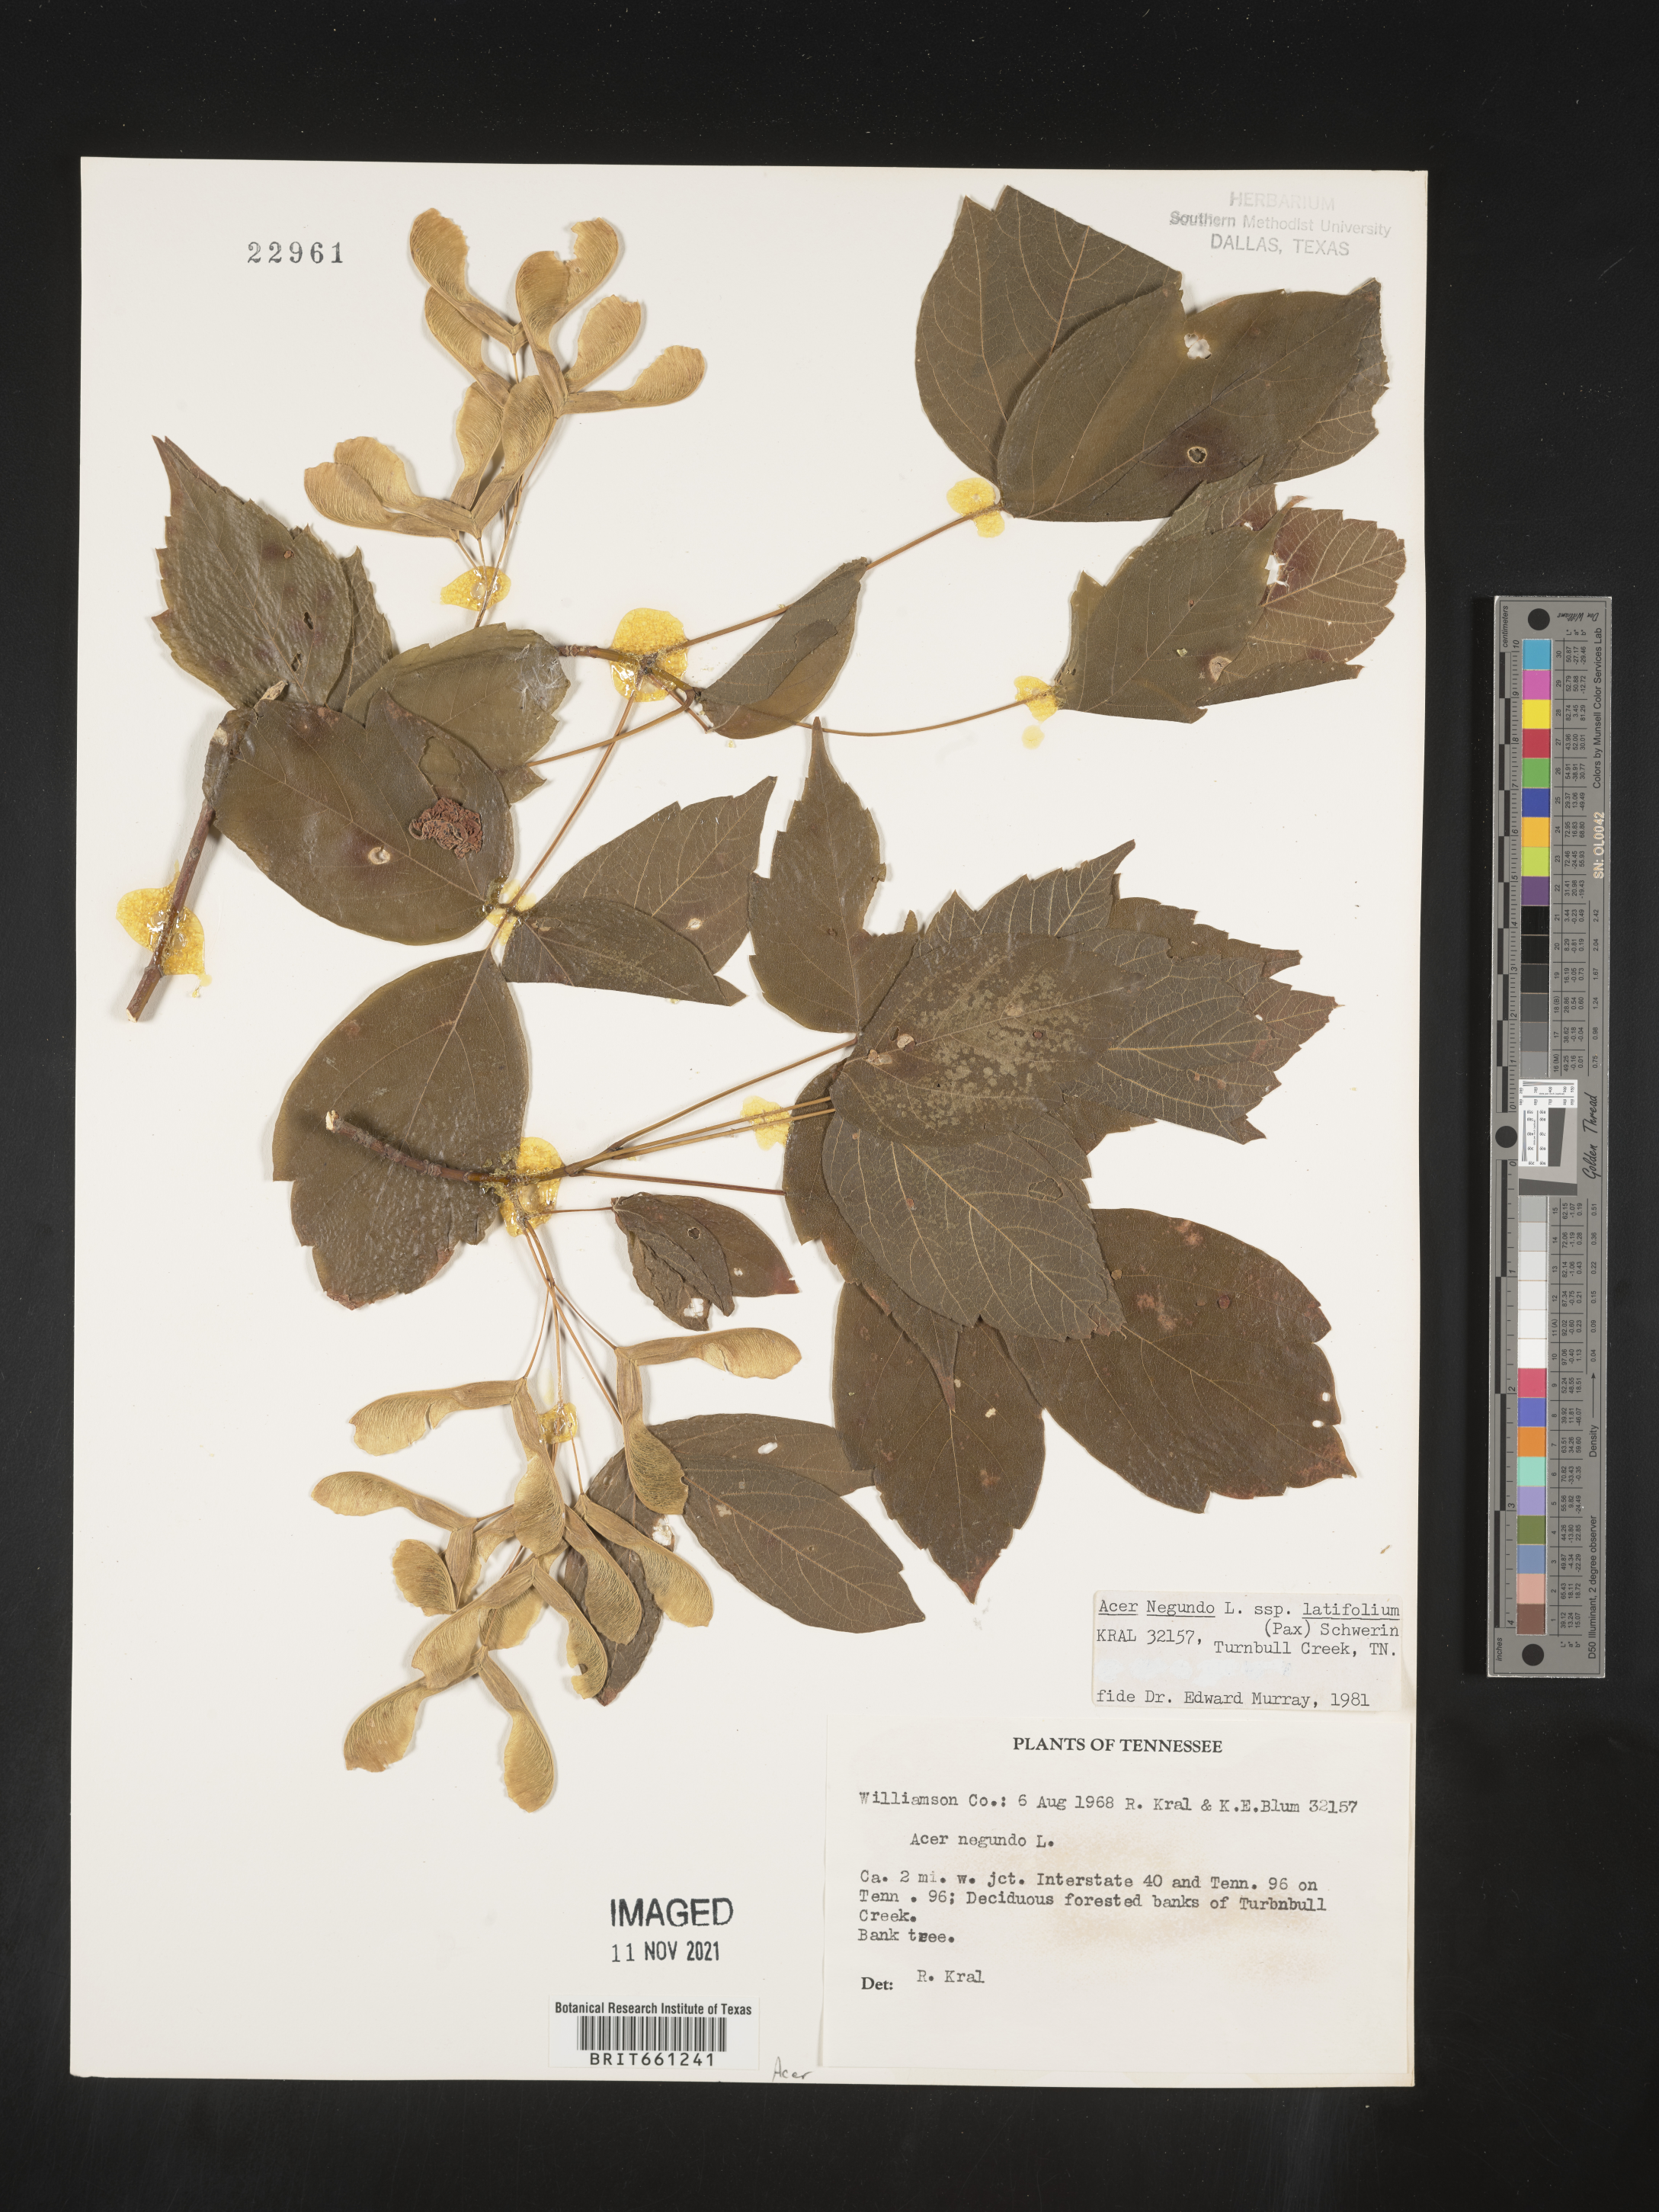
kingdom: Plantae
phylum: Tracheophyta
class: Magnoliopsida
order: Sapindales
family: Sapindaceae
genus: Acer
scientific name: Acer negundo
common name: Ashleaf maple
